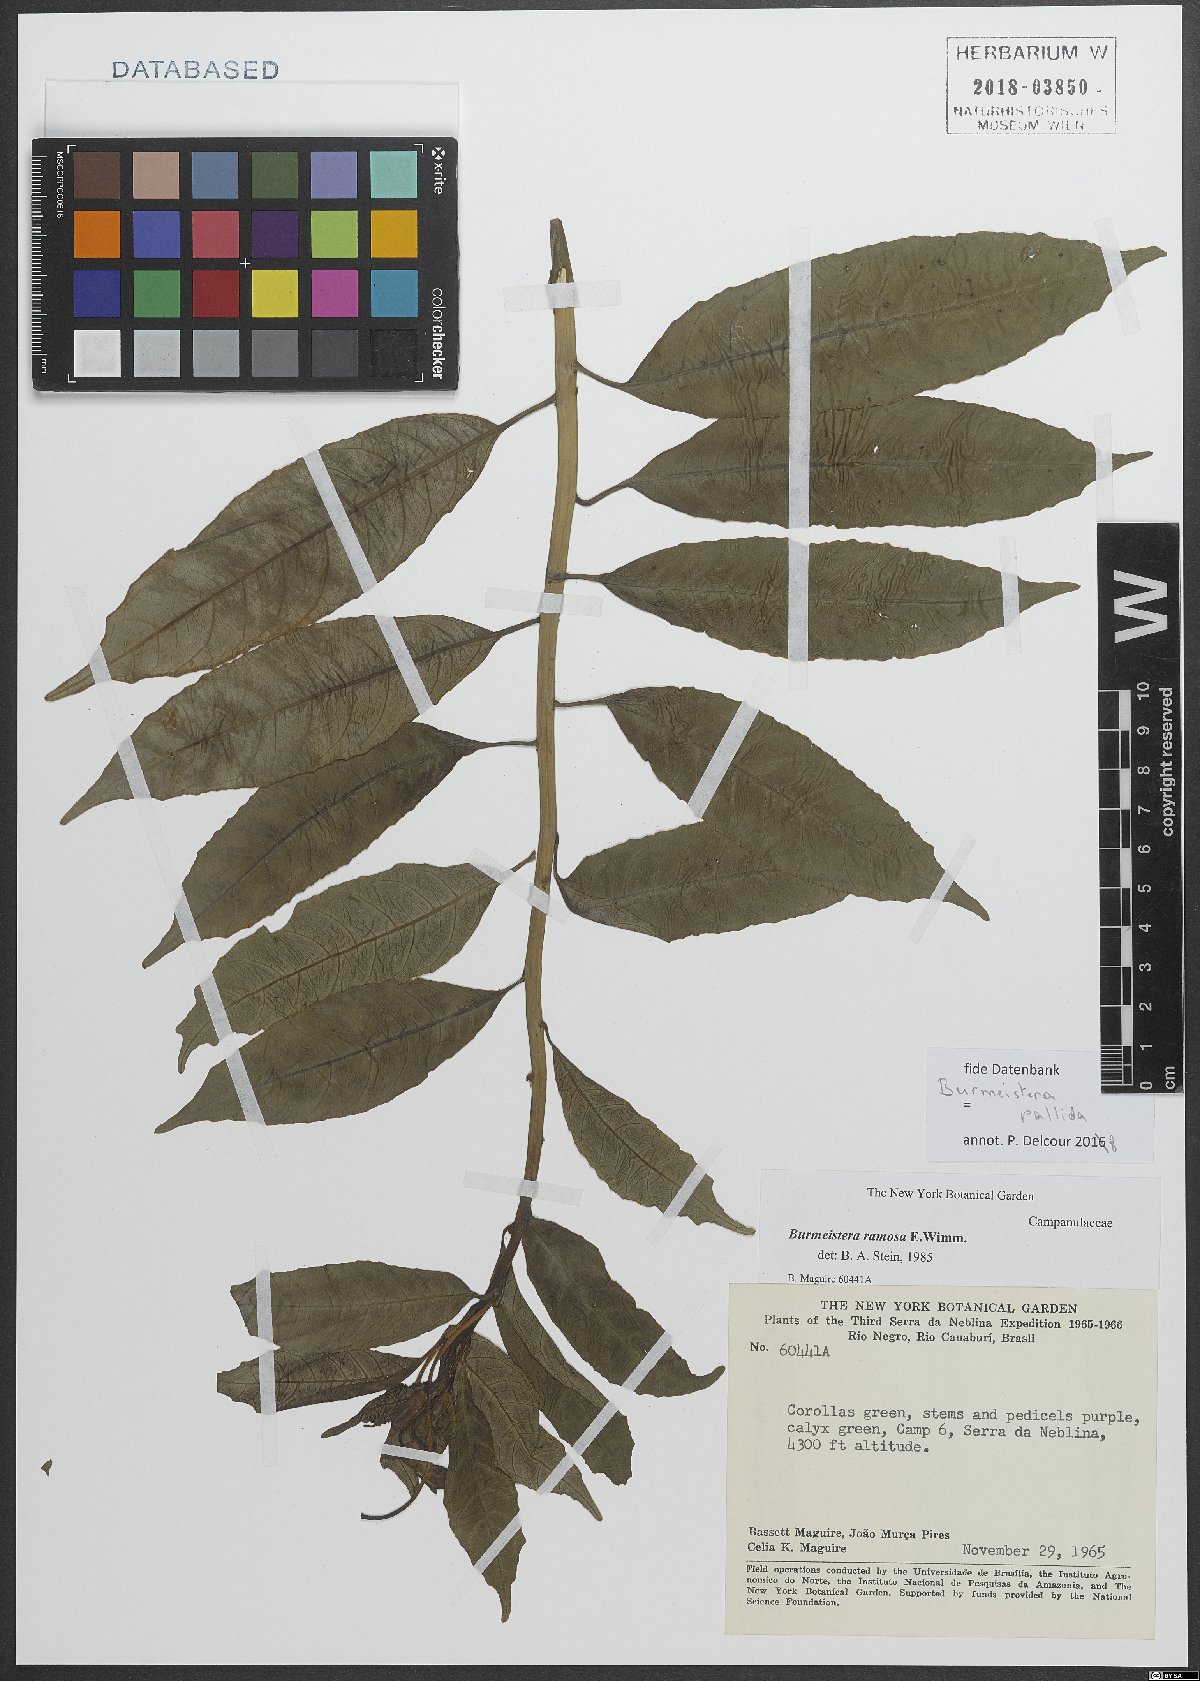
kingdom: Plantae
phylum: Tracheophyta
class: Magnoliopsida
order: Asterales
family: Campanulaceae
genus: Burmeistera
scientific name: Burmeistera pallida
